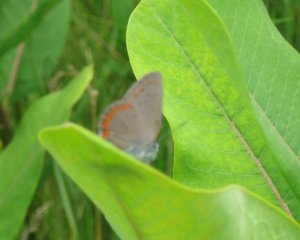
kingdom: Animalia
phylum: Arthropoda
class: Insecta
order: Lepidoptera
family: Lycaenidae
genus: Harkenclenus
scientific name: Harkenclenus titus
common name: Coral Hairstreak
